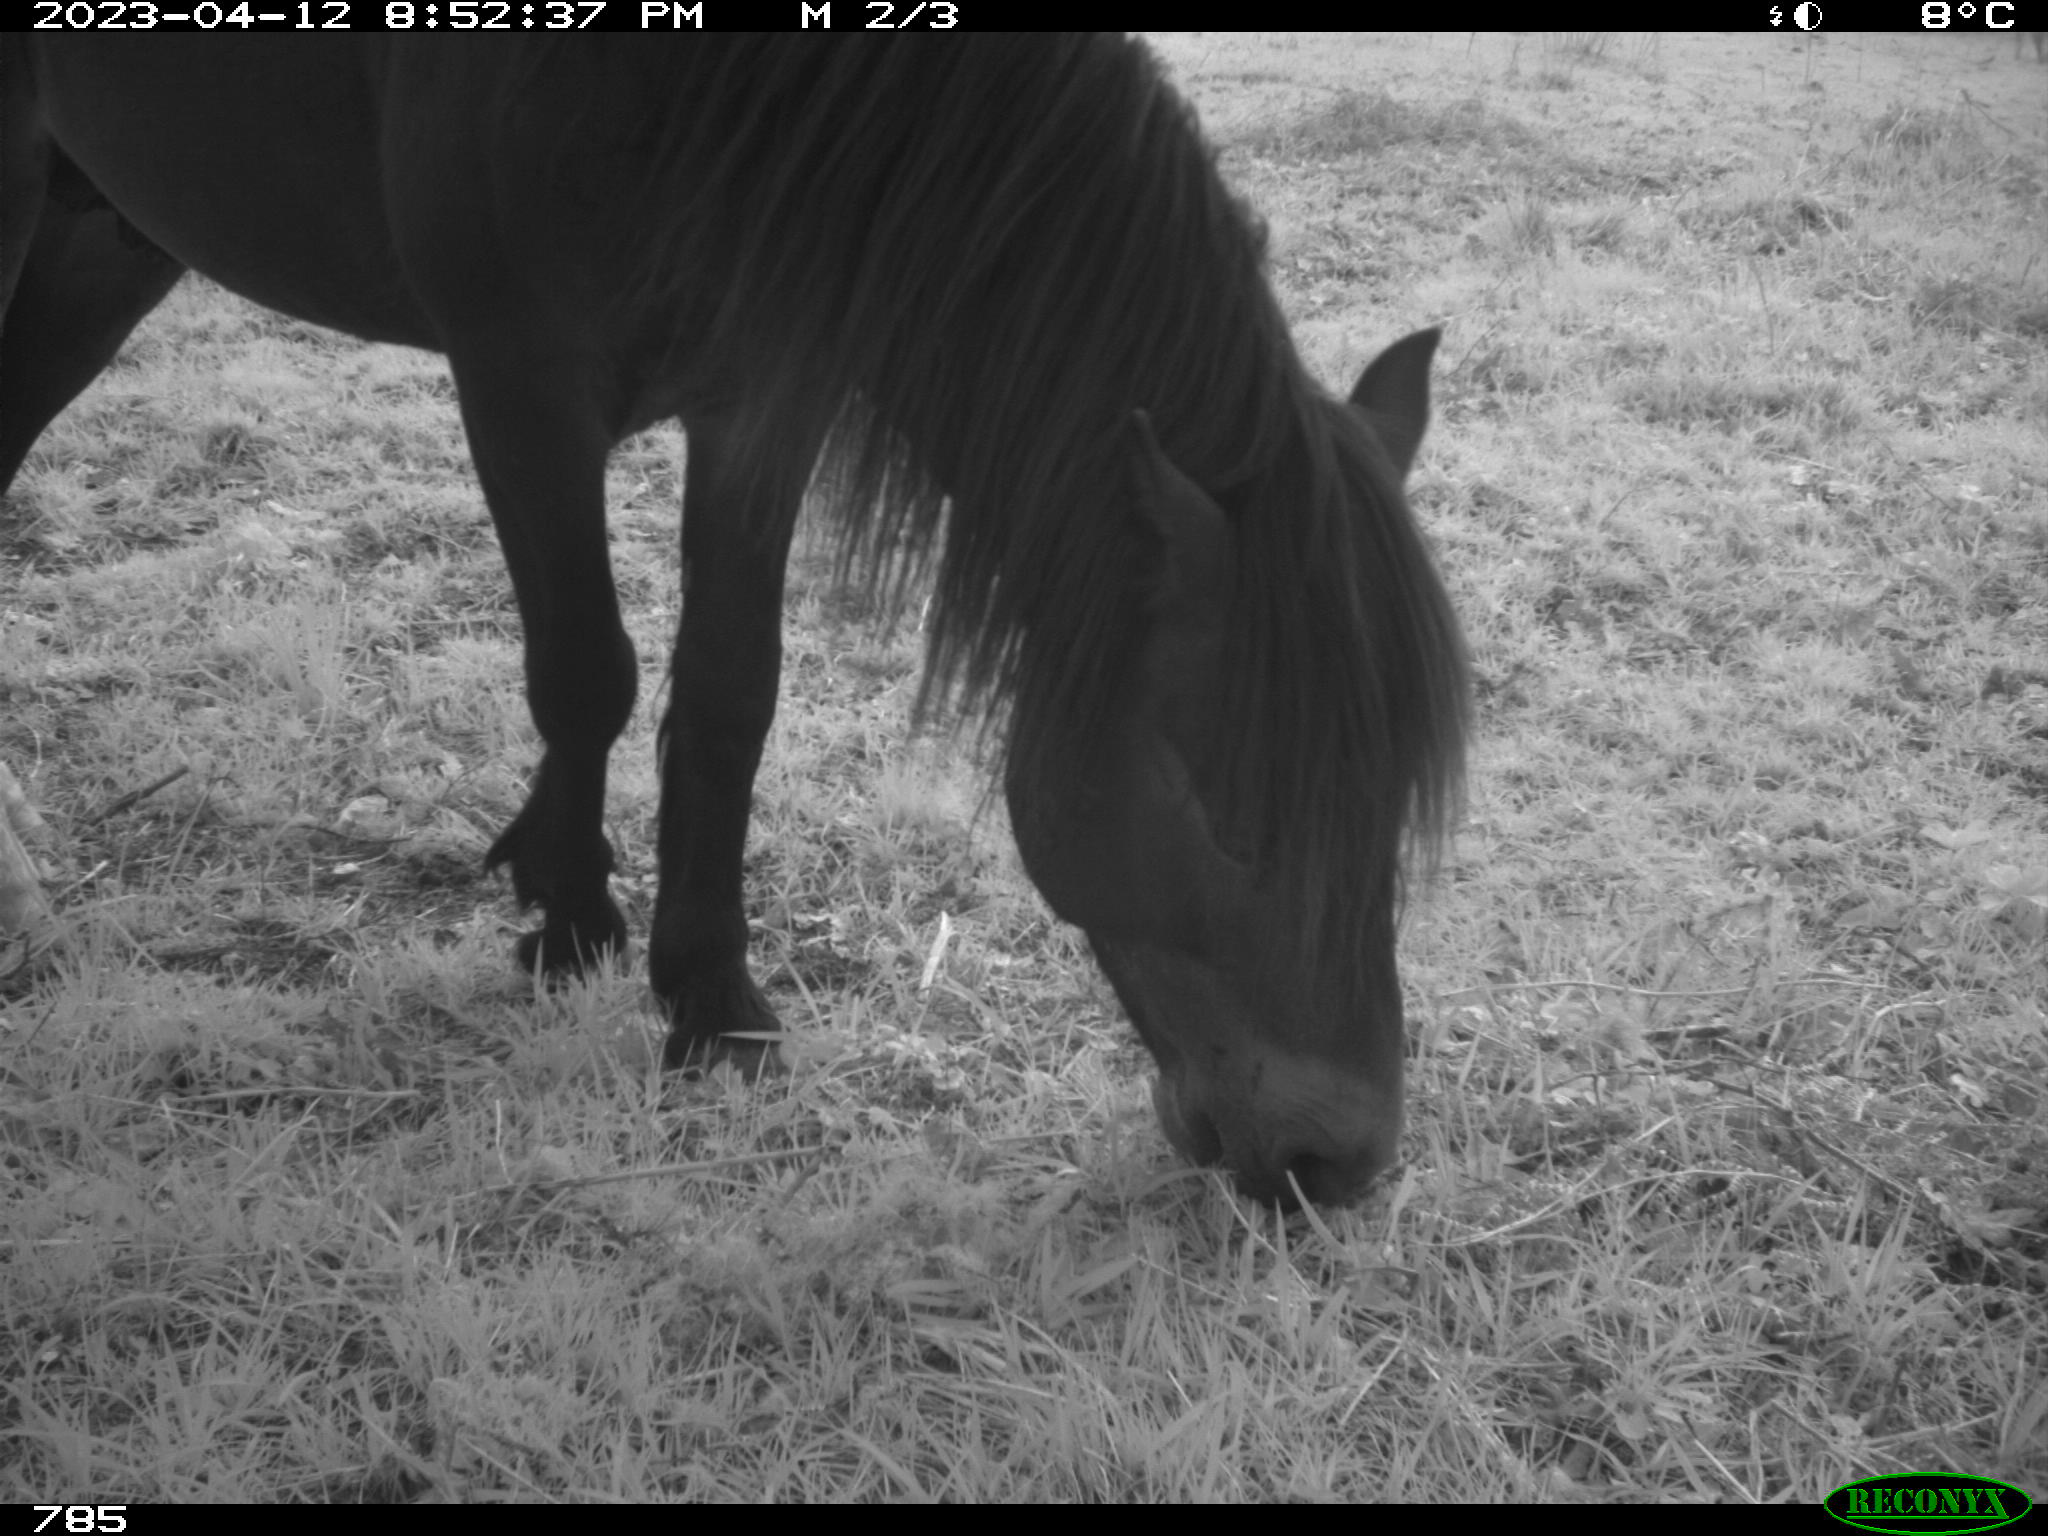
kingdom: Animalia
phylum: Chordata
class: Mammalia
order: Perissodactyla
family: Equidae
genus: Equus
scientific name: Equus caballus
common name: Horse
